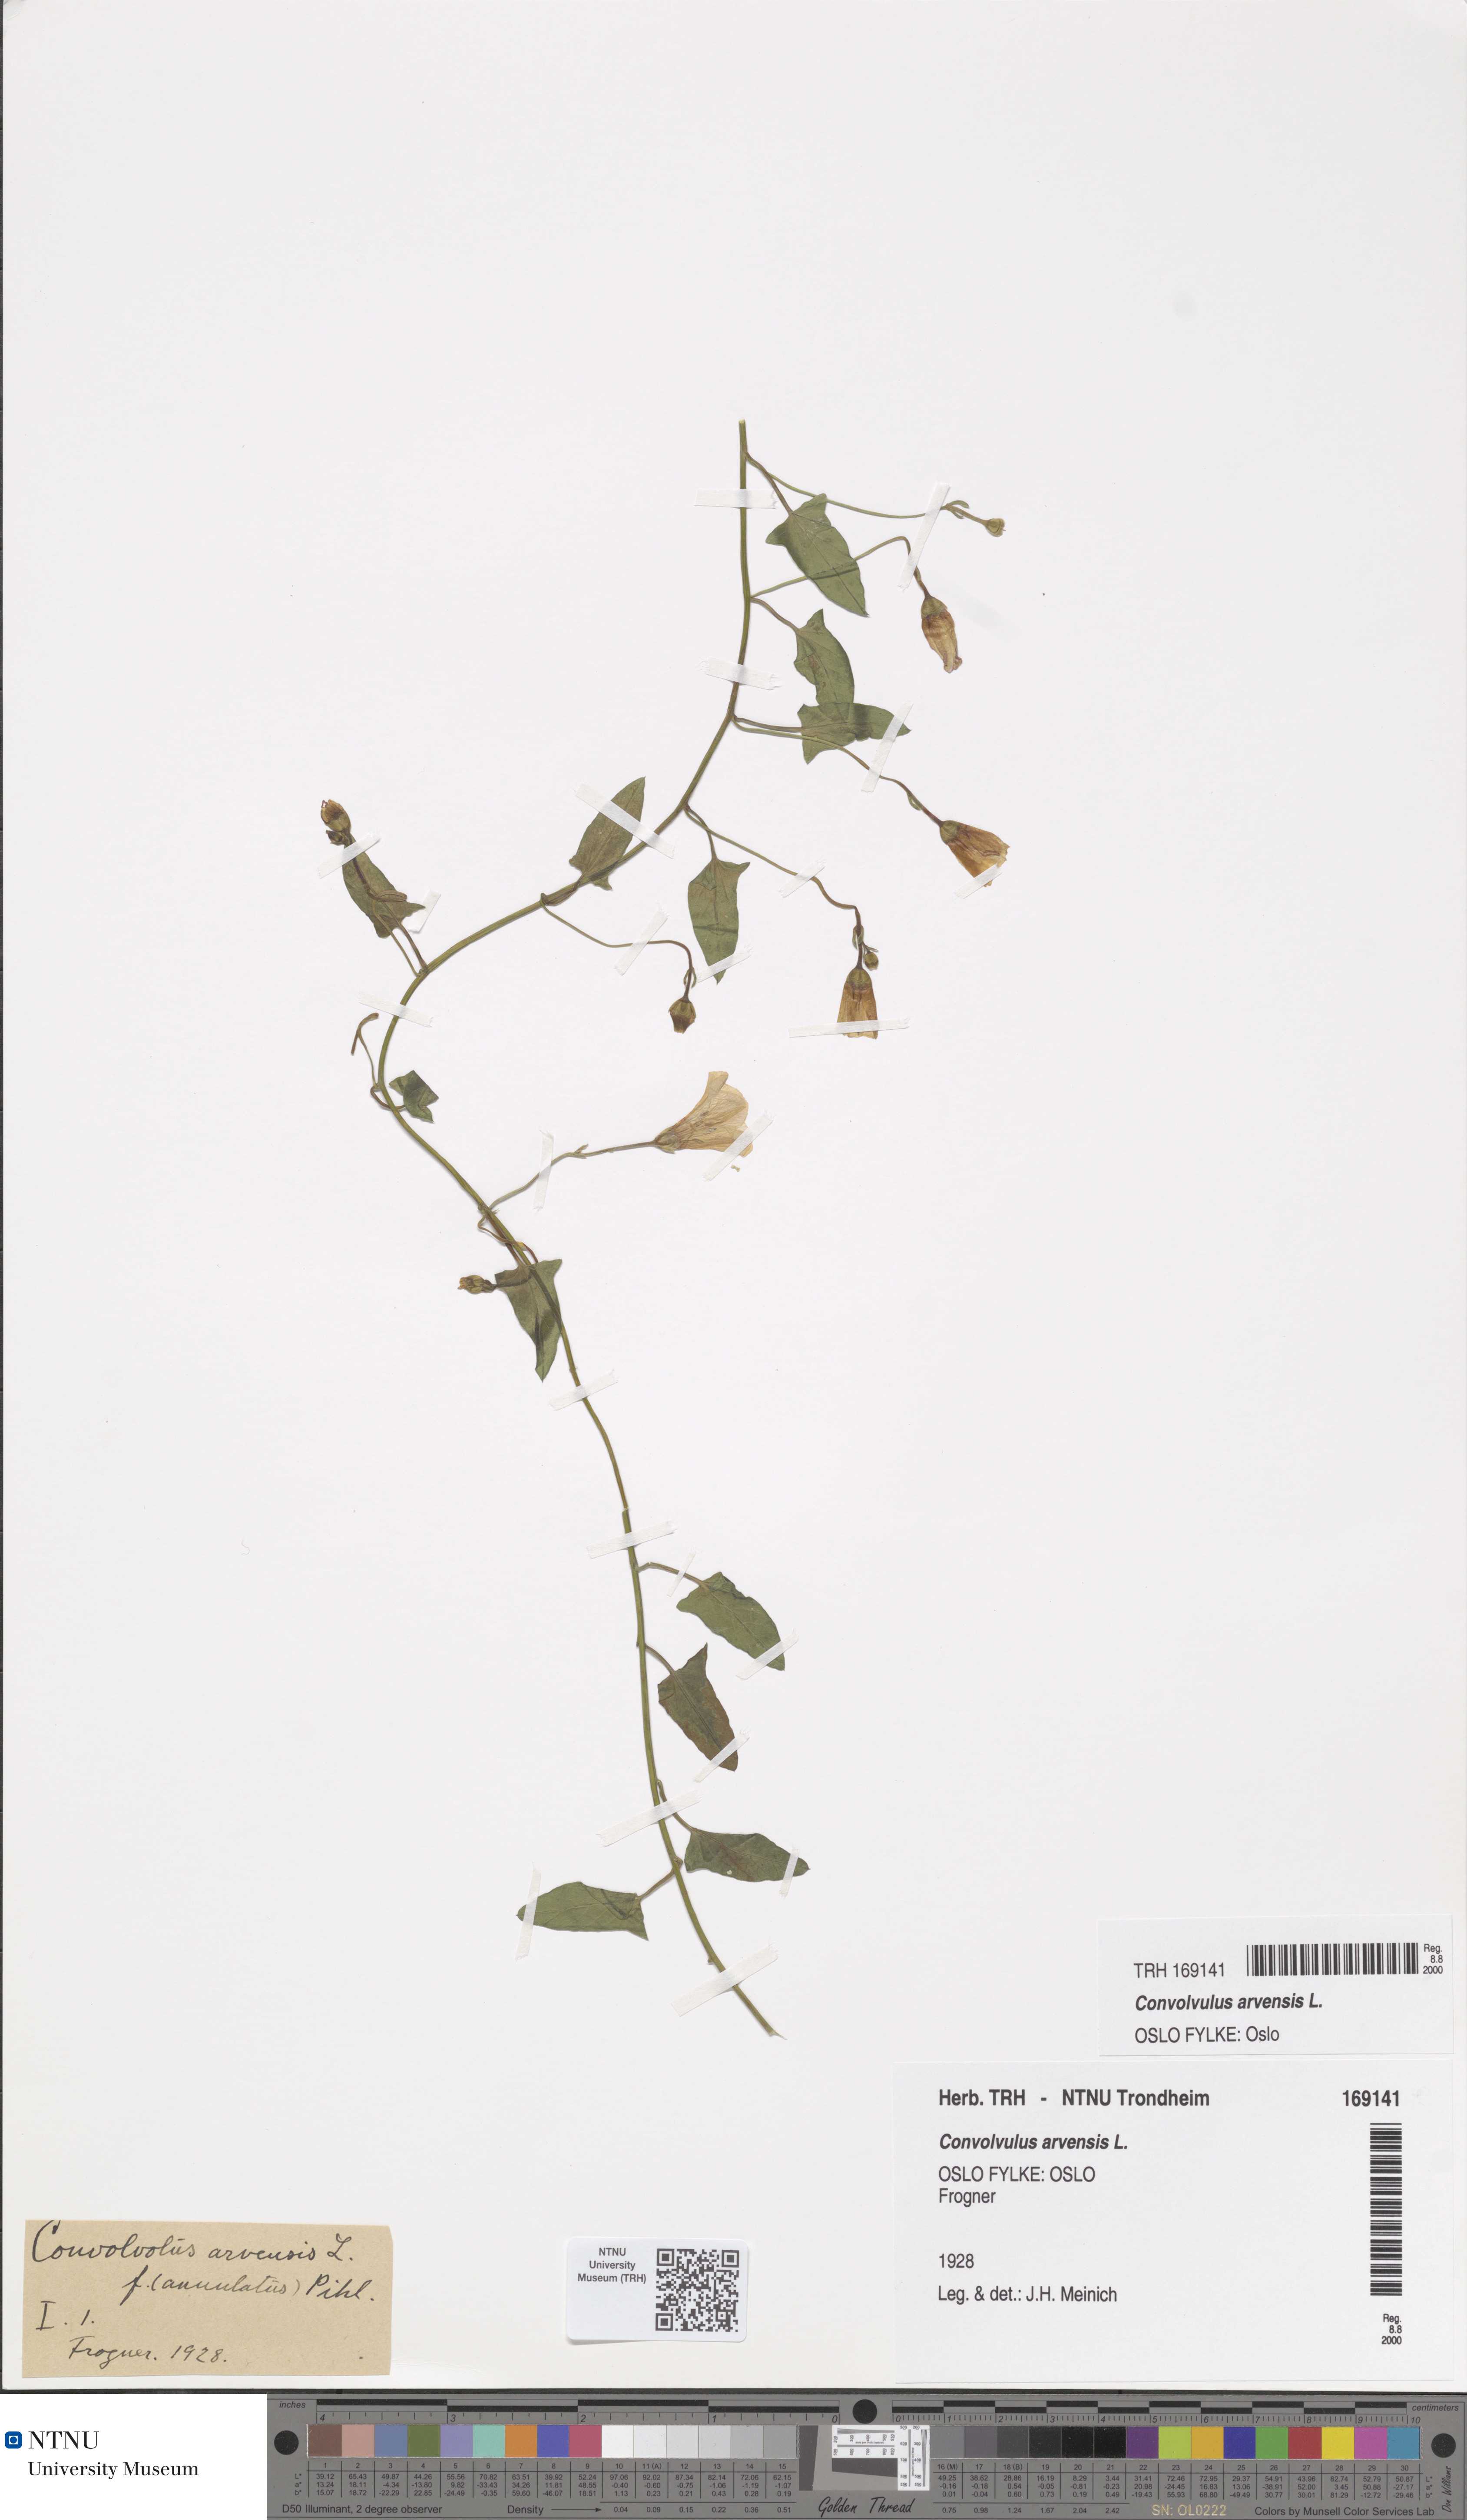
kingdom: Plantae
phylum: Tracheophyta
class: Magnoliopsida
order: Solanales
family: Convolvulaceae
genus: Convolvulus
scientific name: Convolvulus arvensis
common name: Field bindweed
